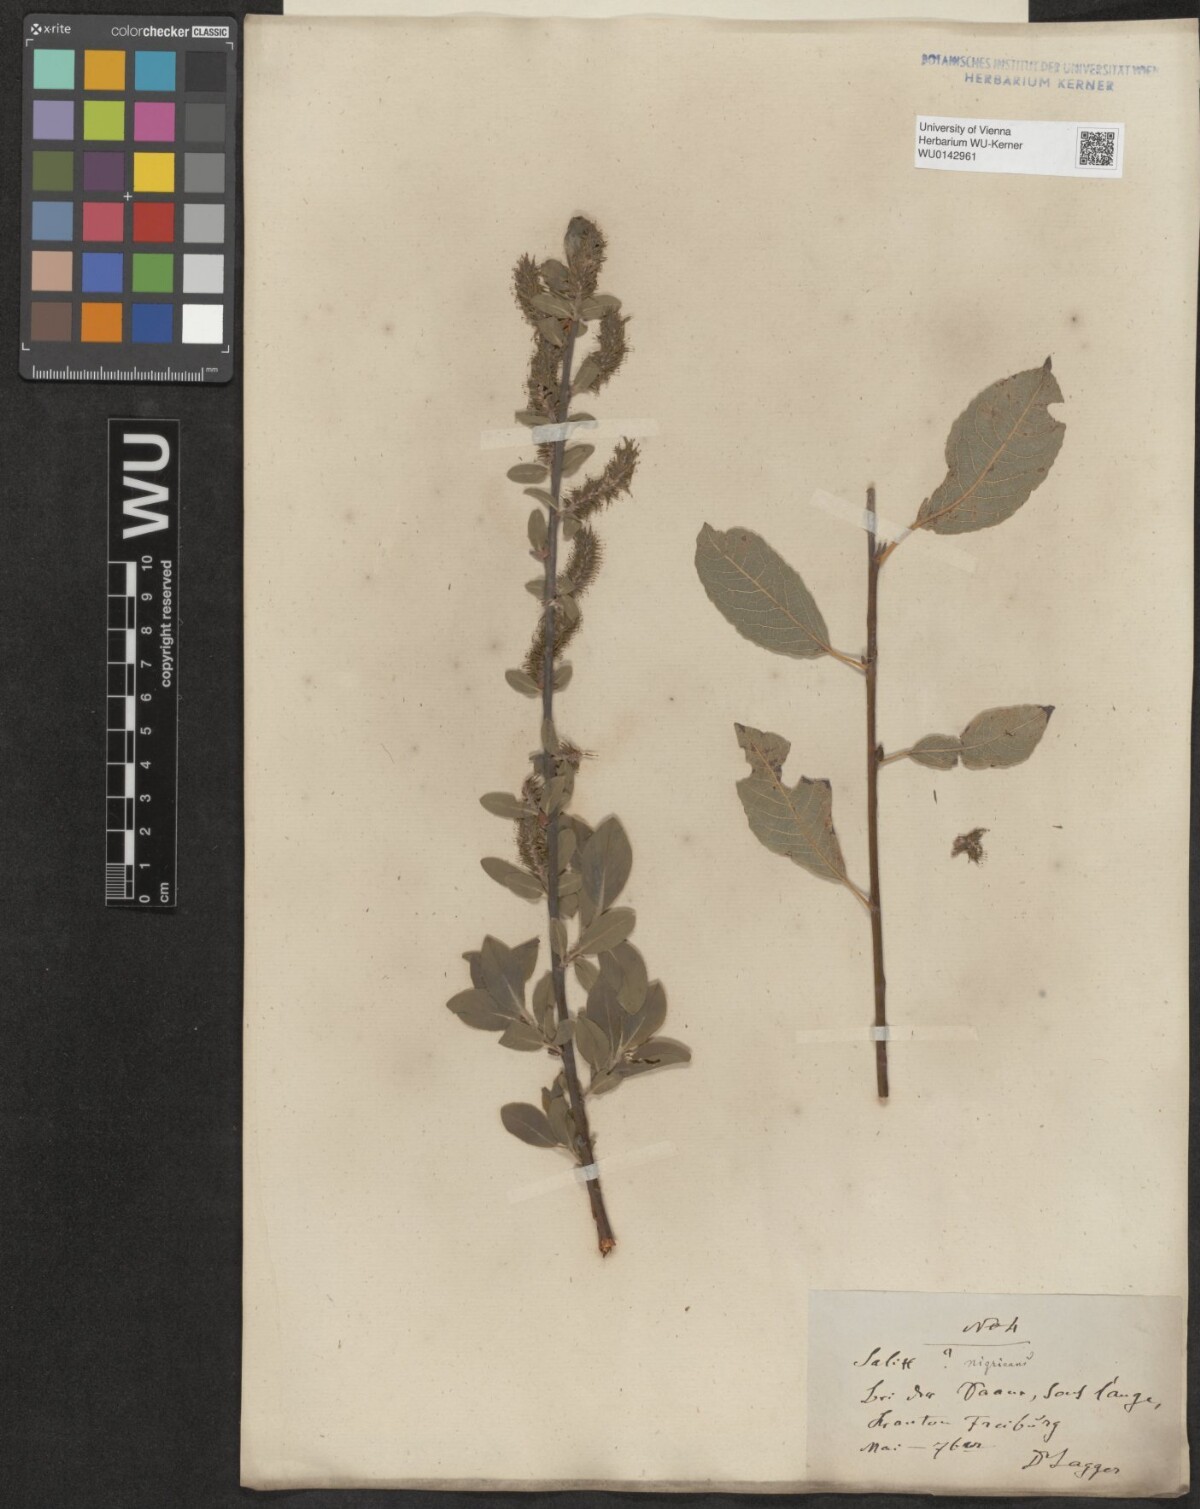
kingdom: Plantae
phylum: Tracheophyta
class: Magnoliopsida
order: Malpighiales
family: Salicaceae
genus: Salix
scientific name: Salix myrsinifolia
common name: Dark-leaved willow
